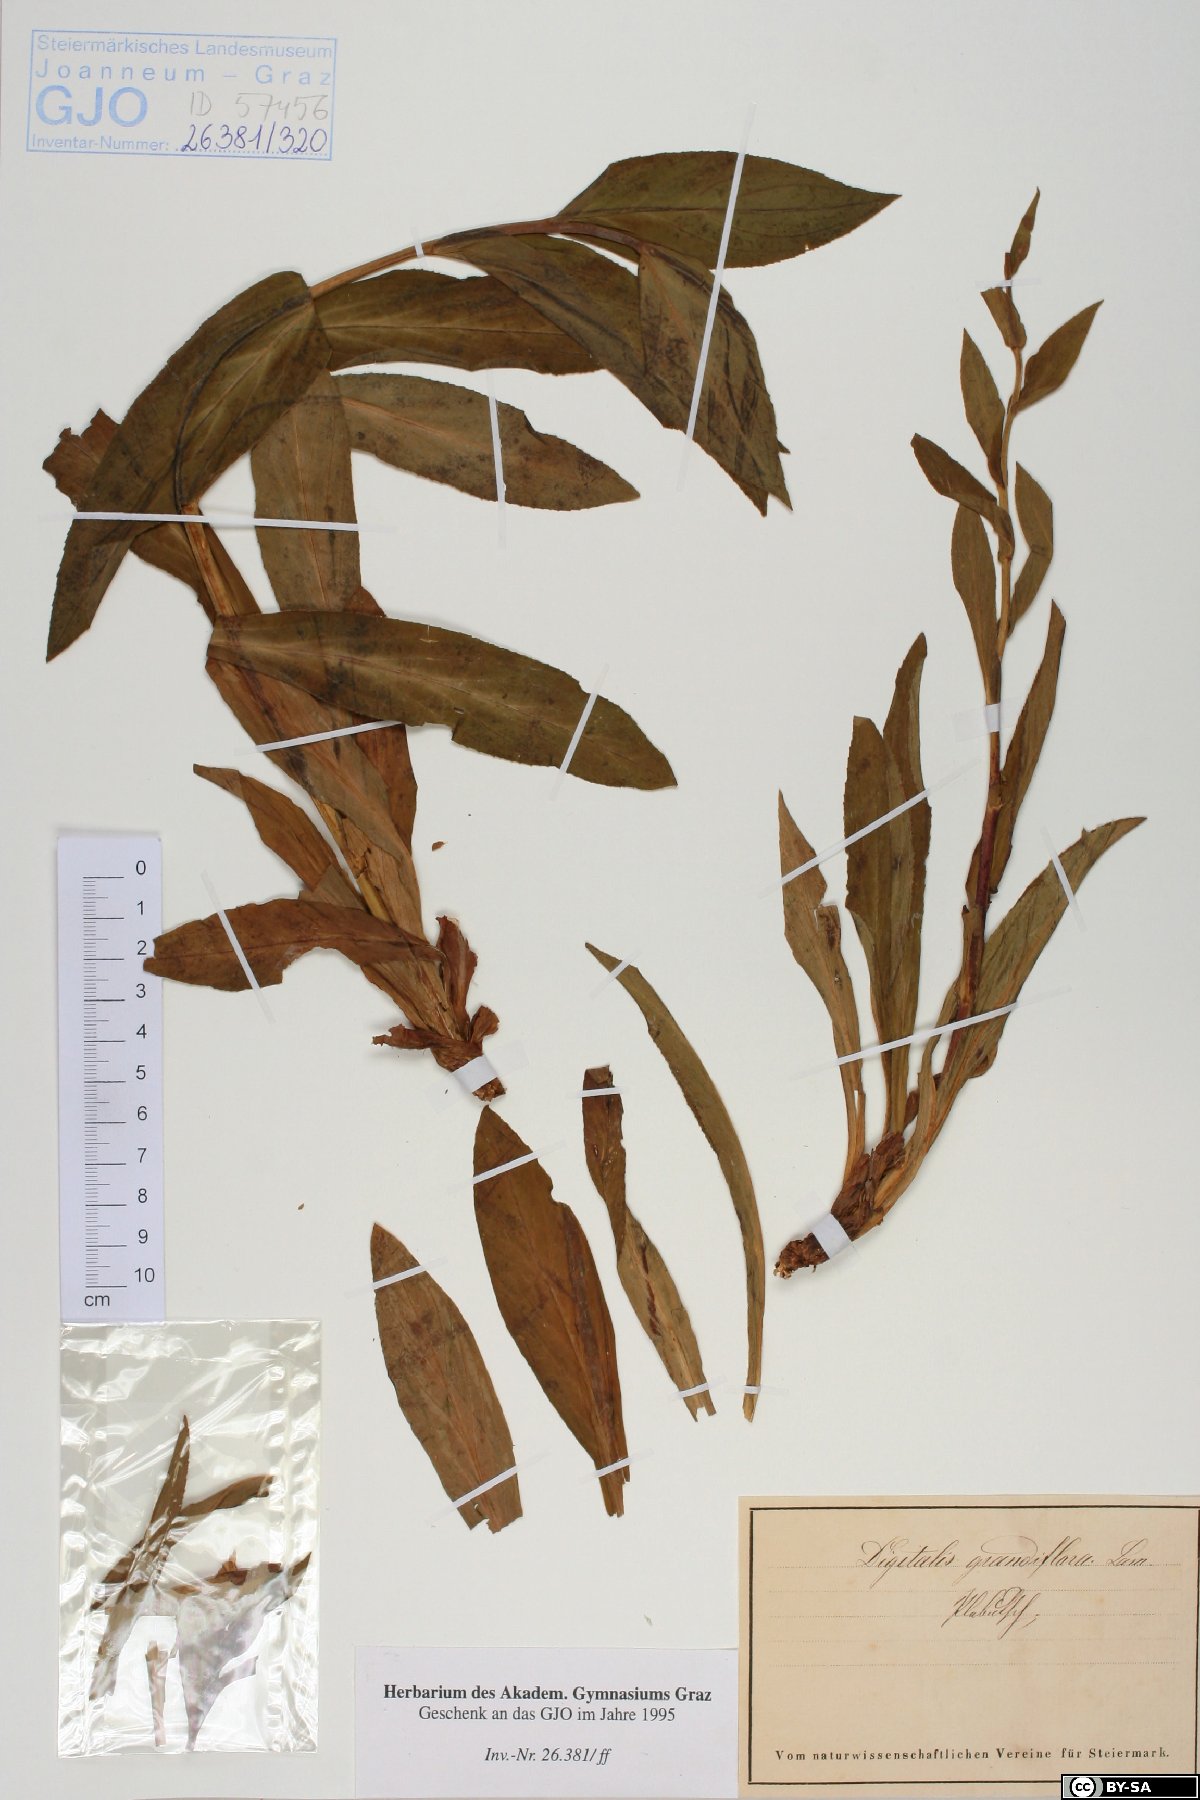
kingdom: Plantae
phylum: Tracheophyta
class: Magnoliopsida
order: Lamiales
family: Plantaginaceae
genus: Digitalis
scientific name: Digitalis grandiflora
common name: Yellow foxglove
